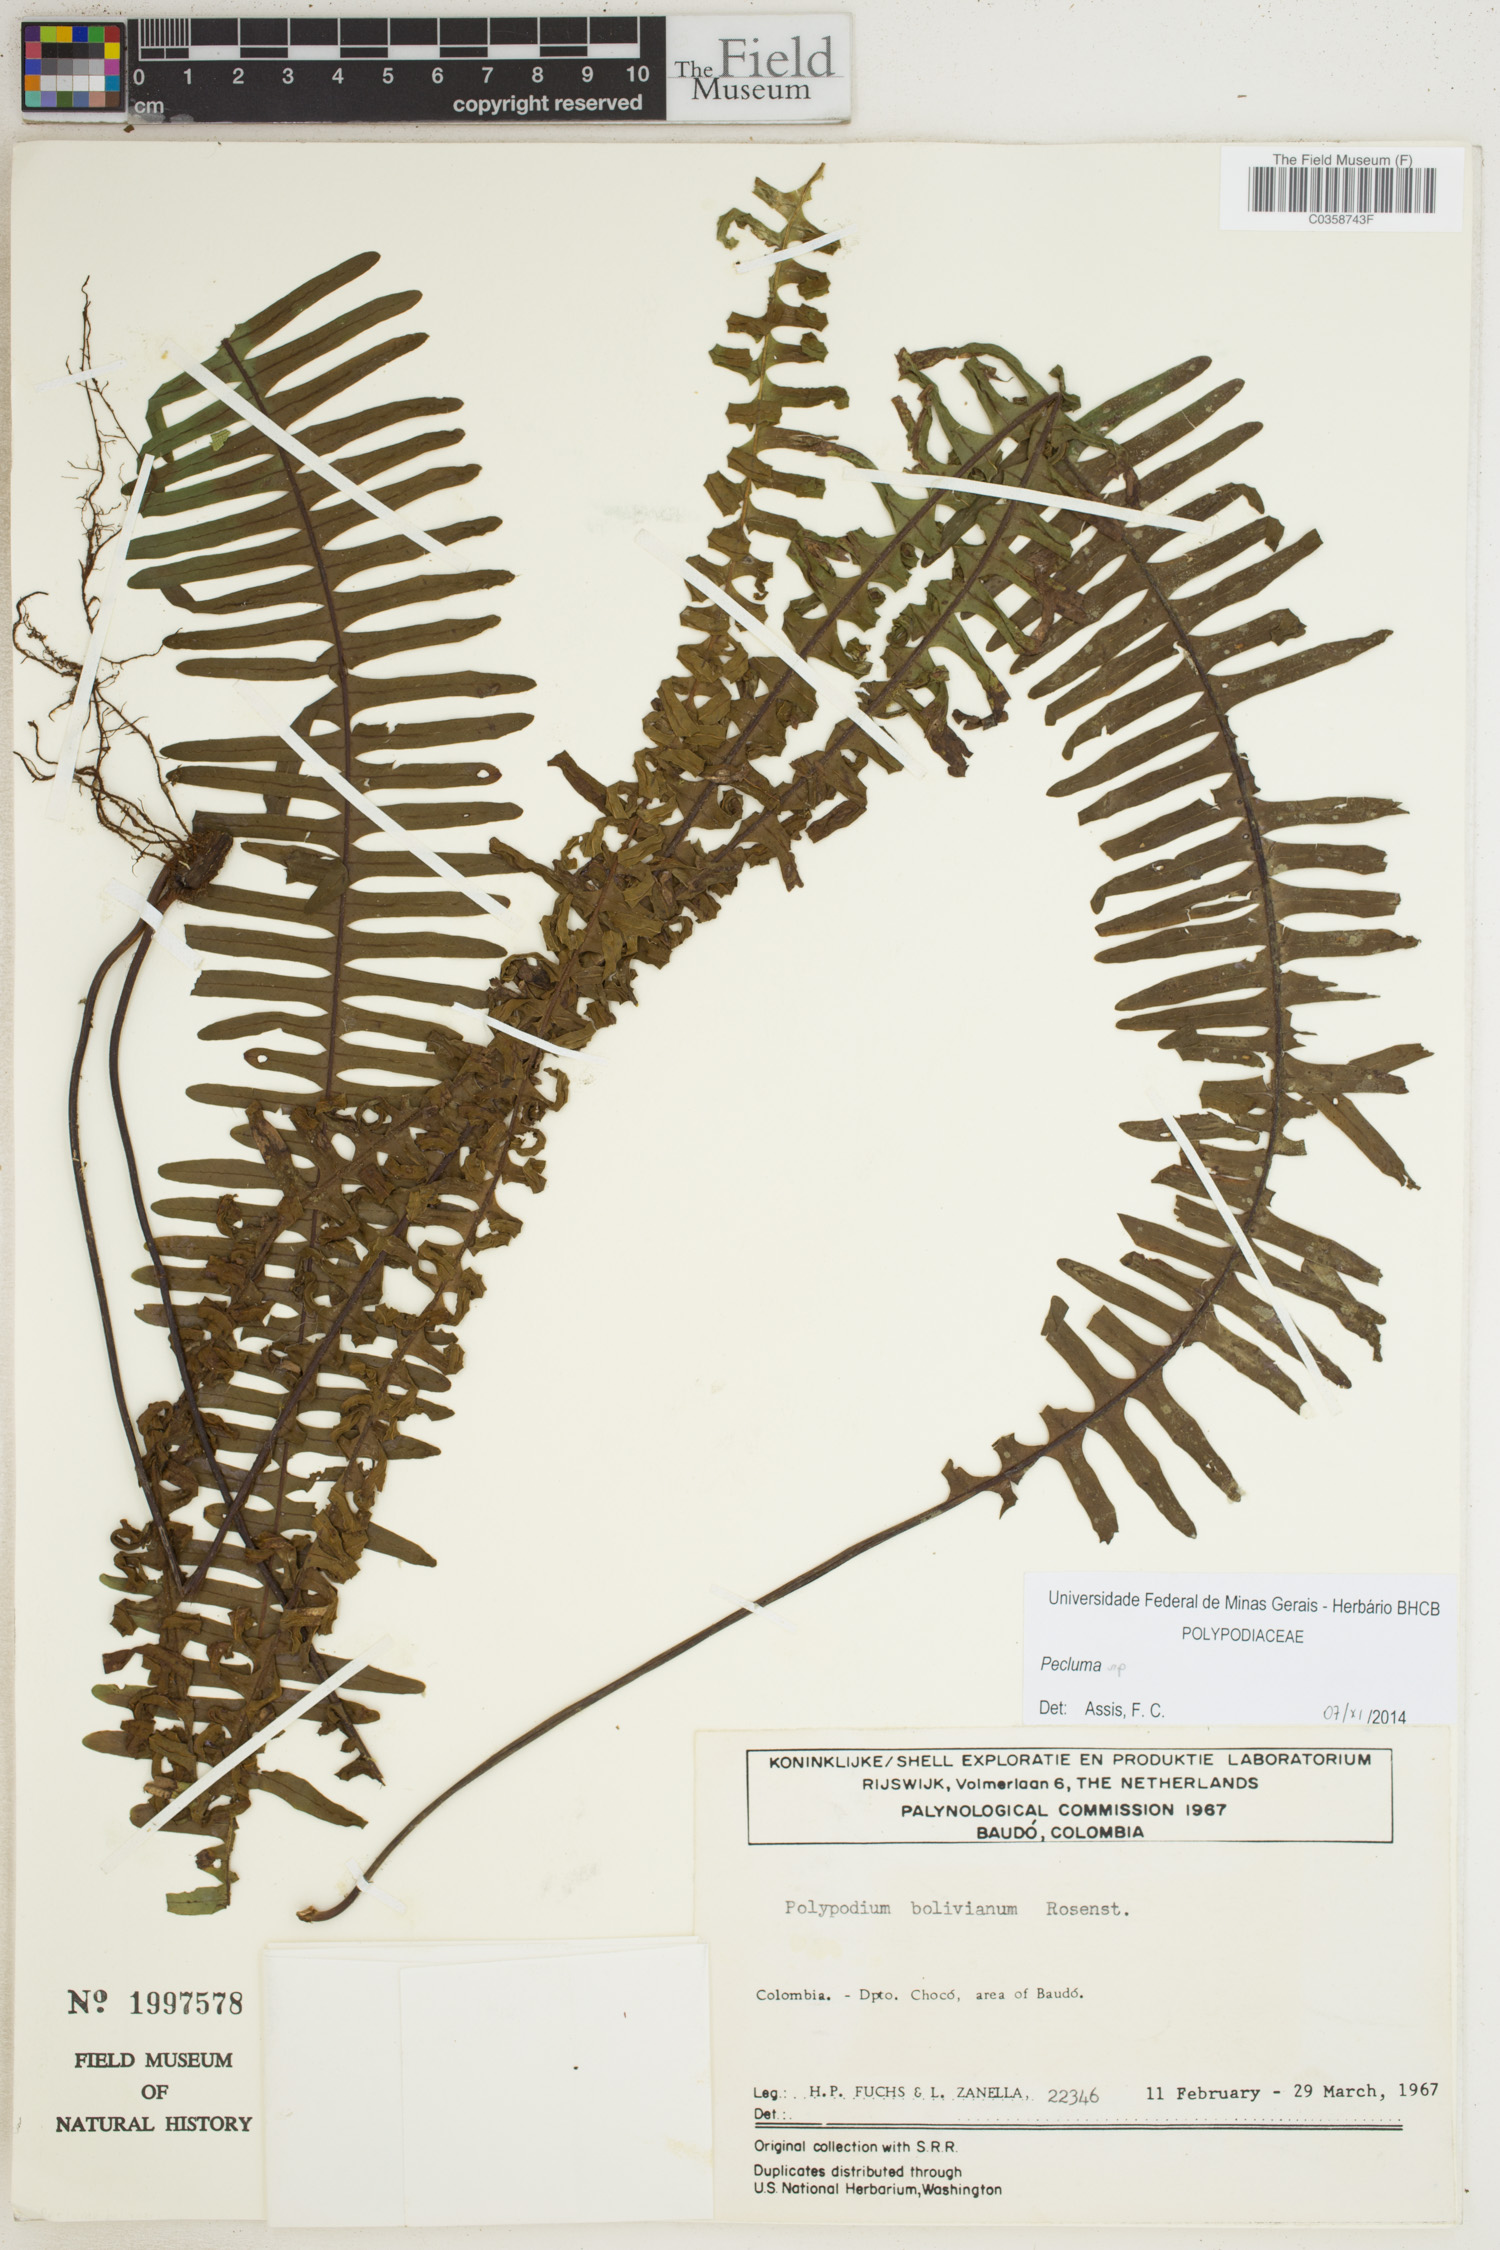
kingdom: Plantae
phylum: Tracheophyta
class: Polypodiopsida
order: Polypodiales
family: Polypodiaceae
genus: Pecluma
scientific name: Pecluma
